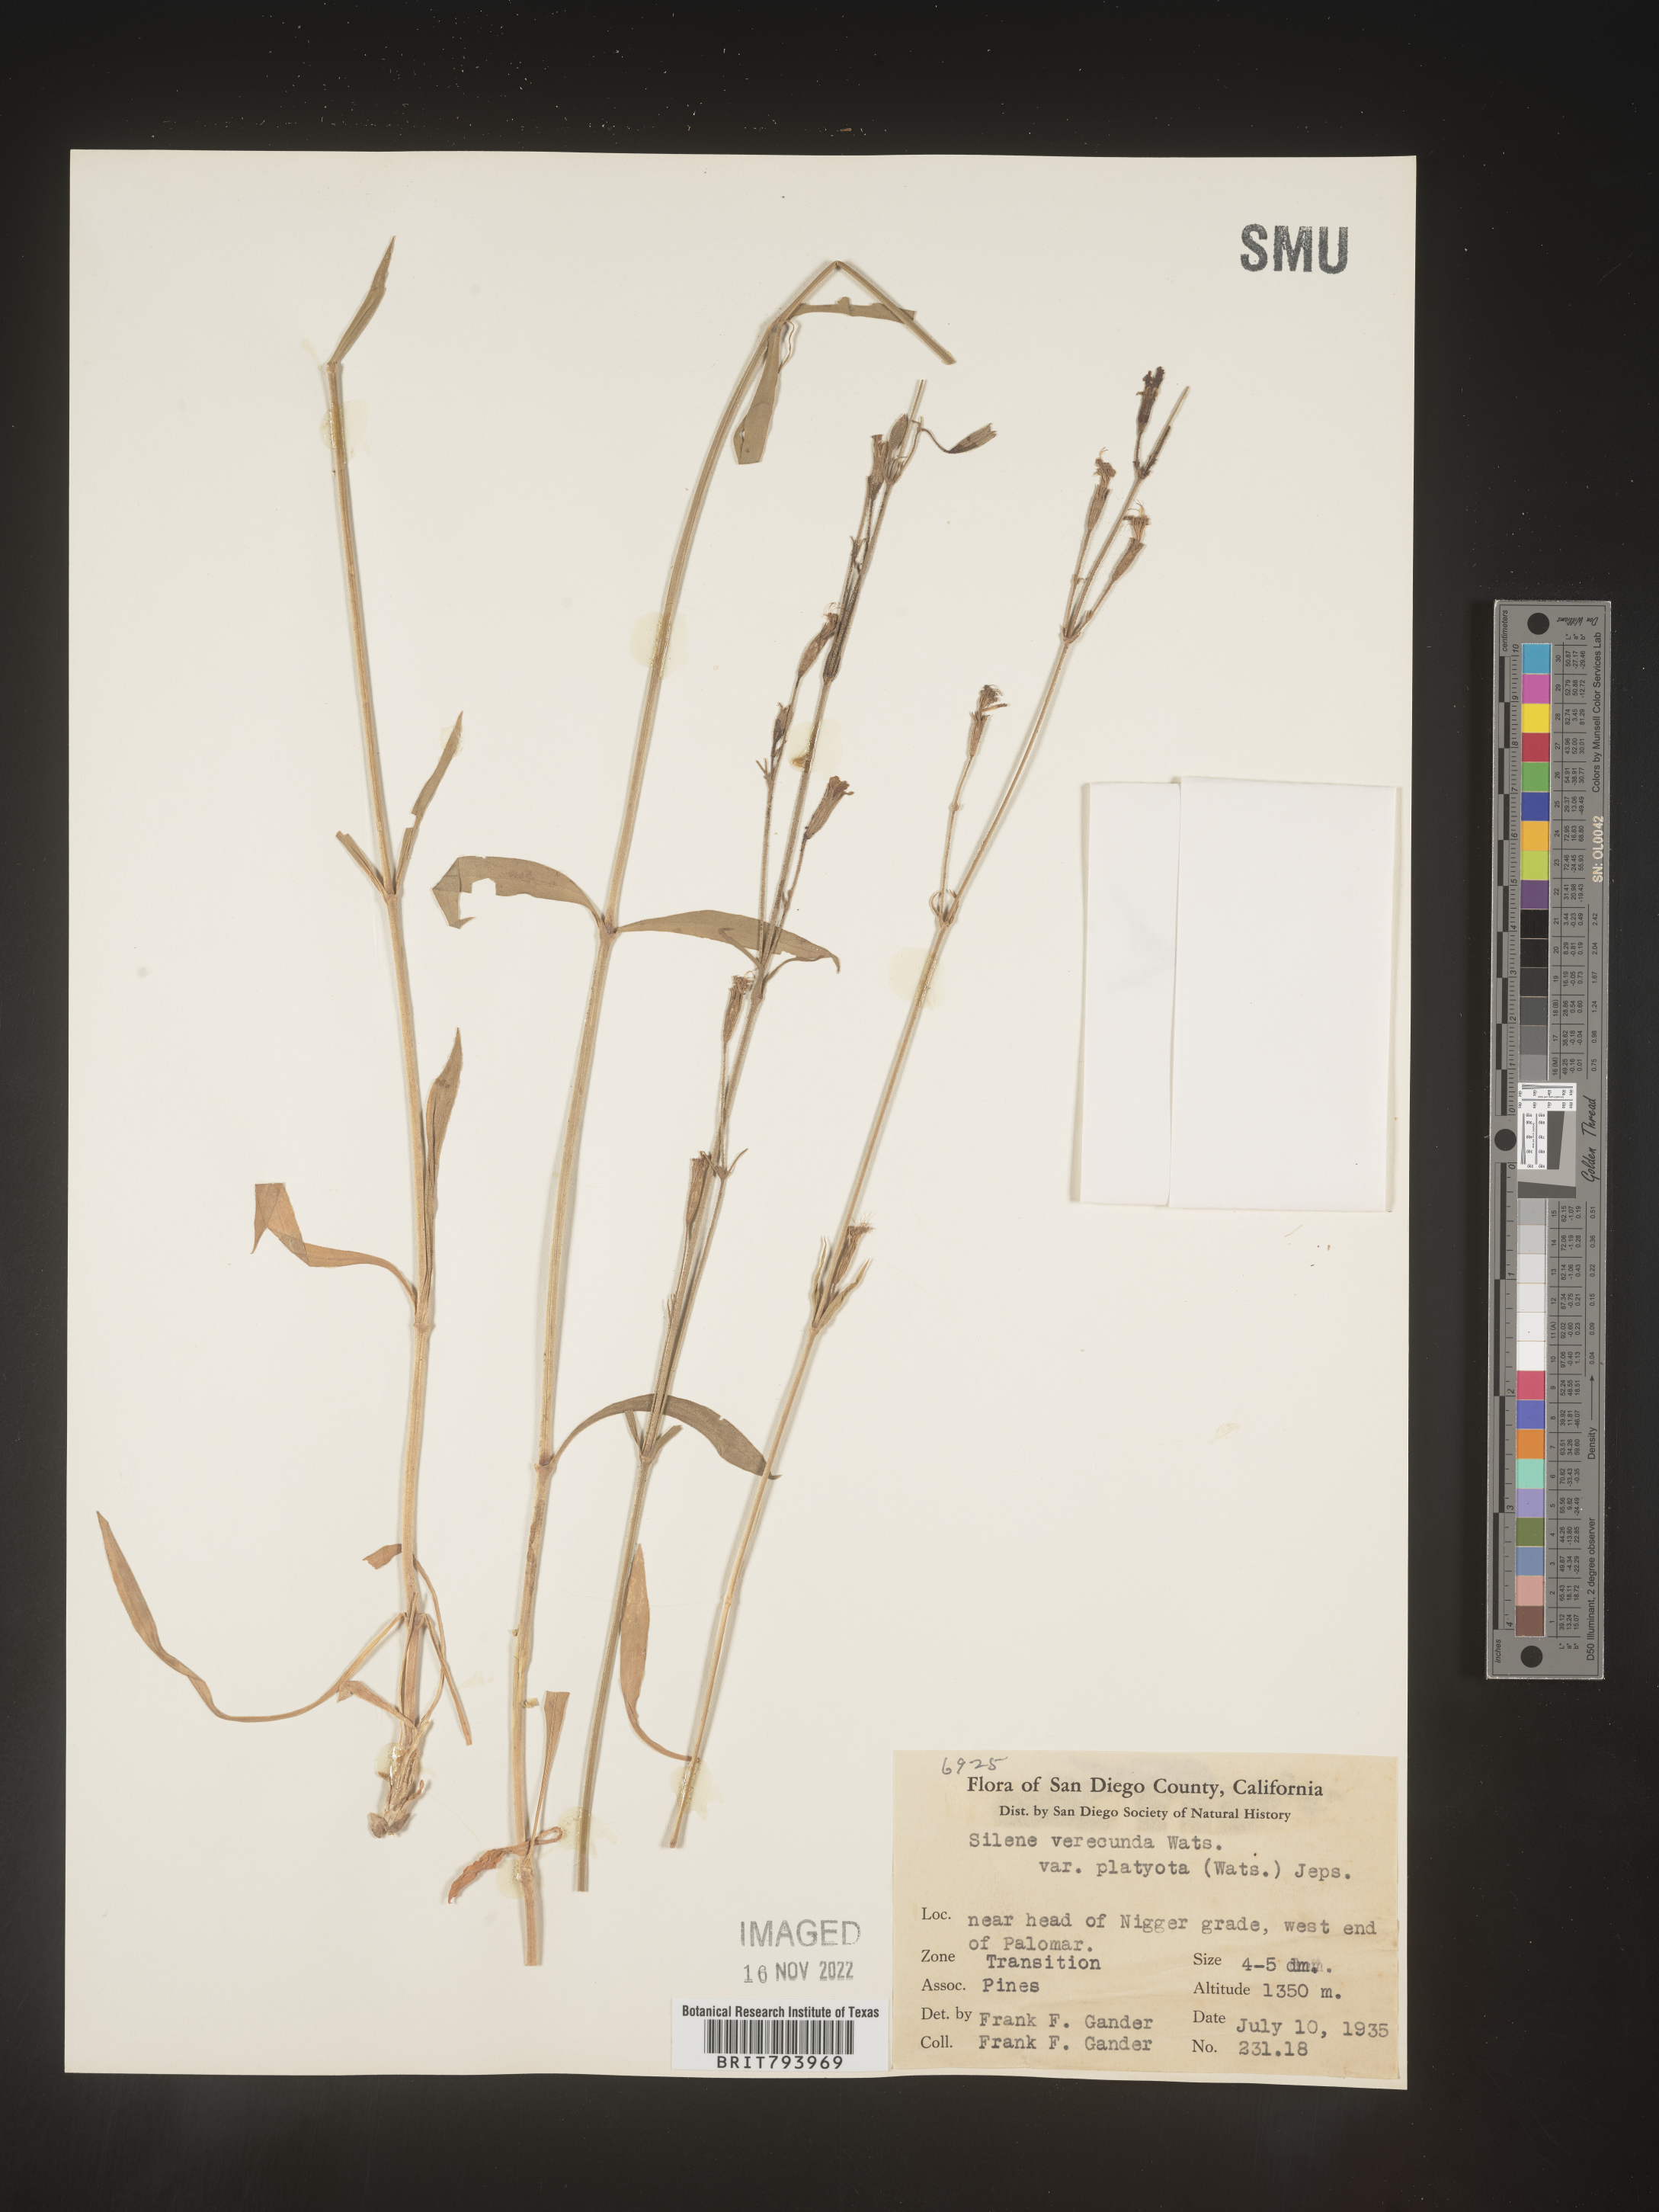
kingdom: Plantae
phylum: Tracheophyta
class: Magnoliopsida
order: Caryophyllales
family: Caryophyllaceae
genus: Silene
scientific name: Silene verecunda
